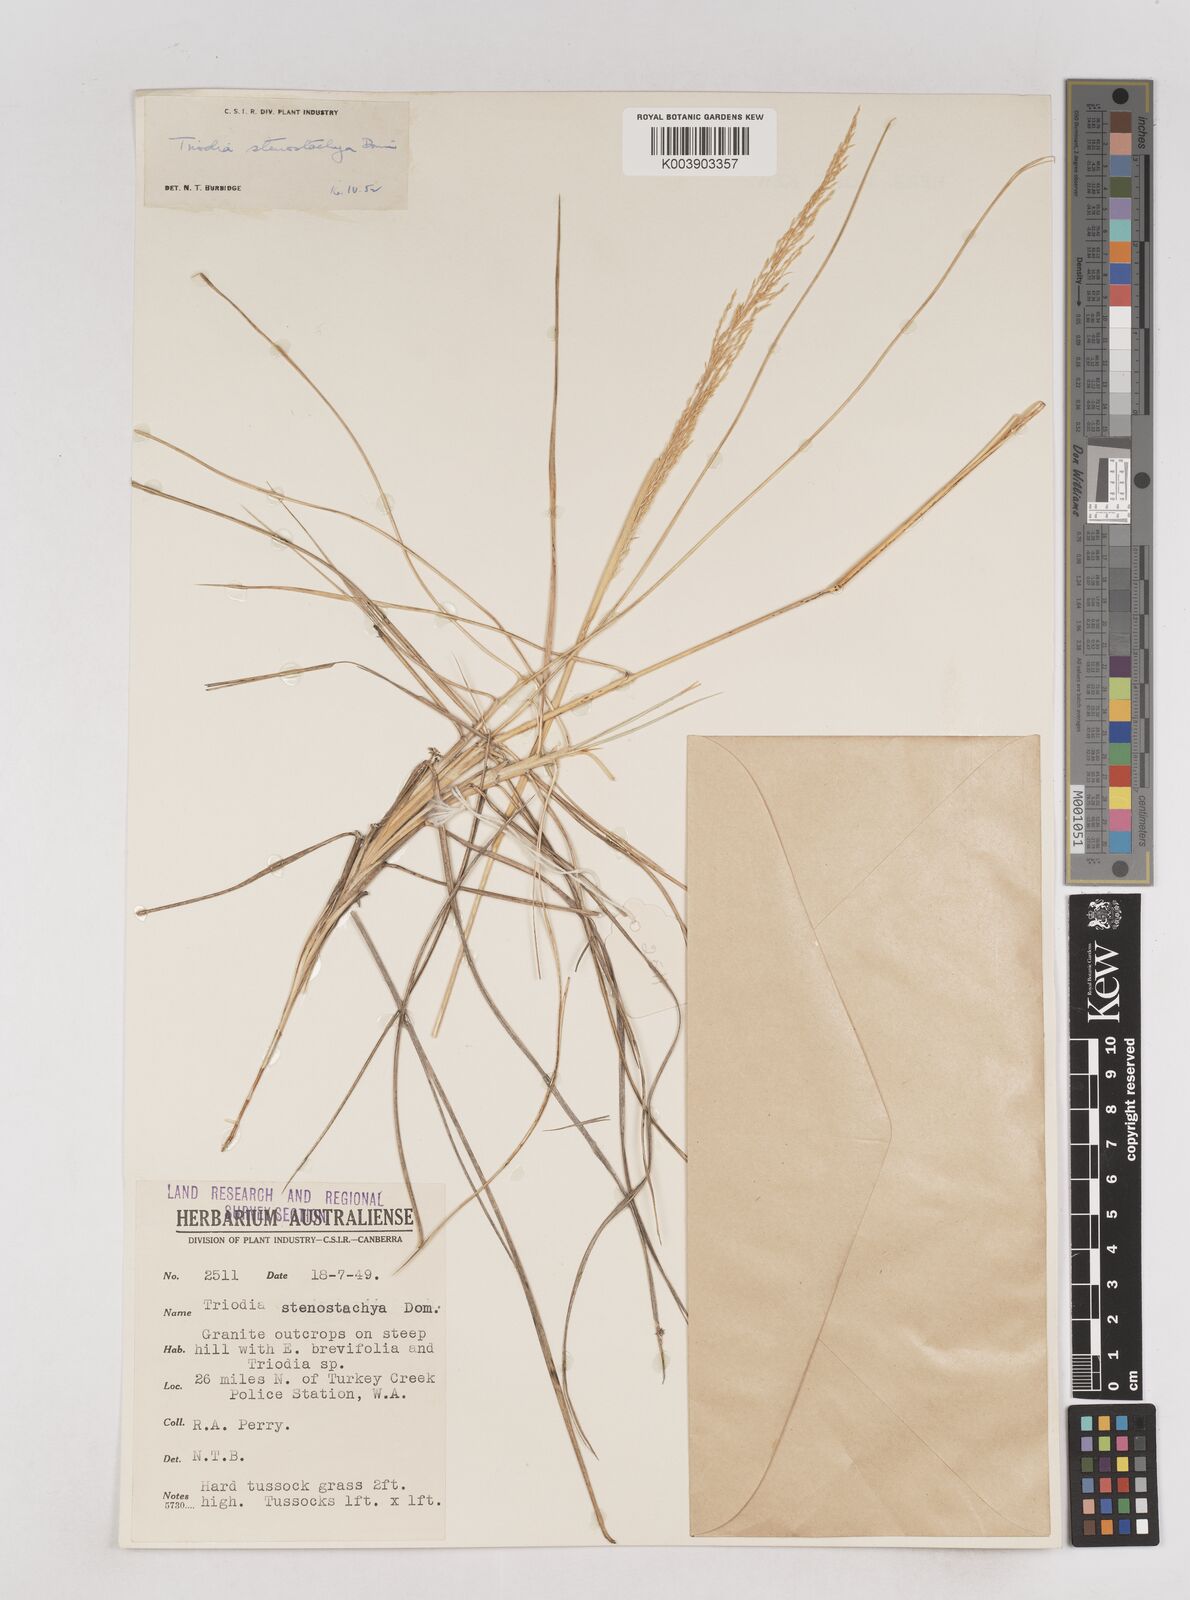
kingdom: Plantae
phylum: Tracheophyta
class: Liliopsida
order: Poales
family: Poaceae
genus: Triodia
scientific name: Triodia stenostachya
